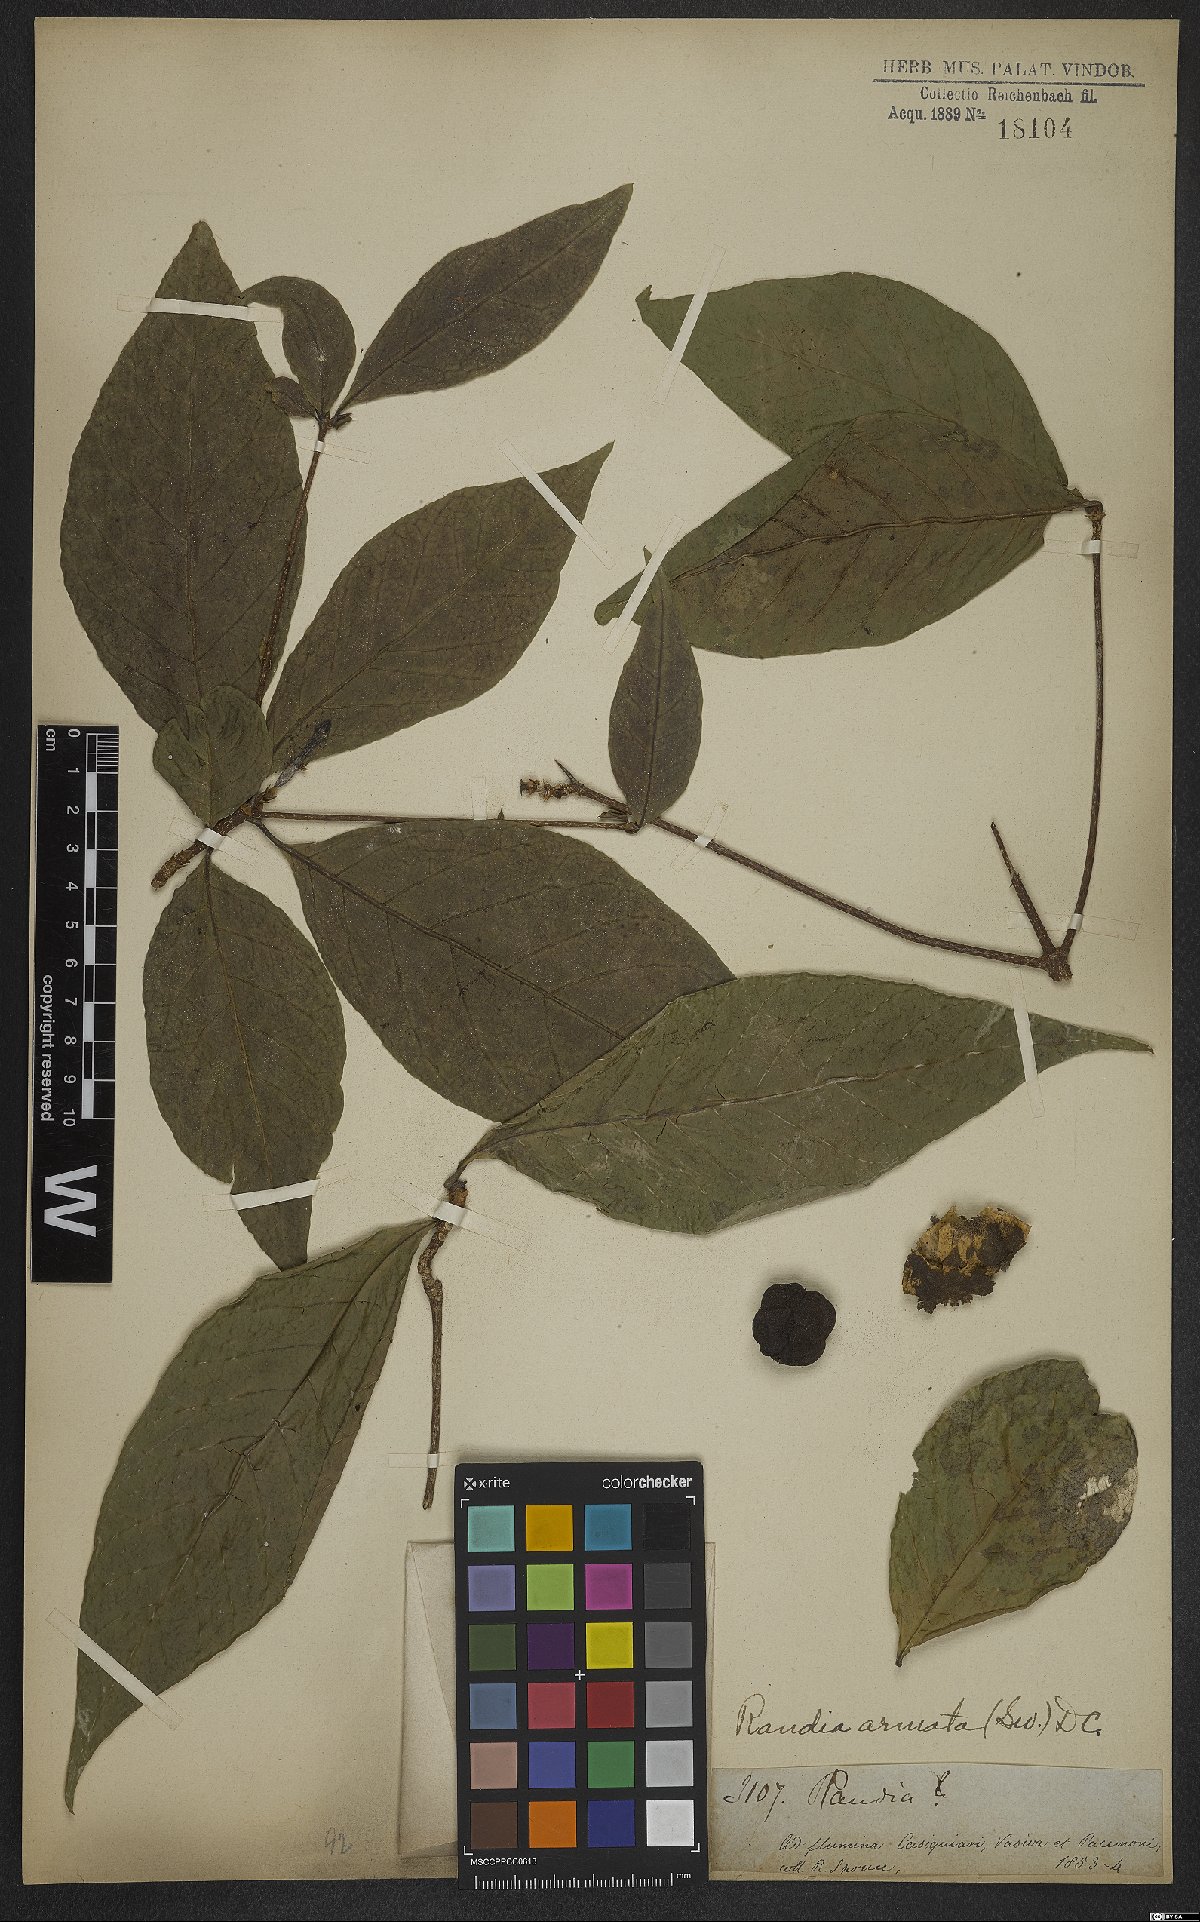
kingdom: Plantae
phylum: Tracheophyta
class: Magnoliopsida
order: Gentianales
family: Rubiaceae
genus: Randia
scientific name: Randia armata
